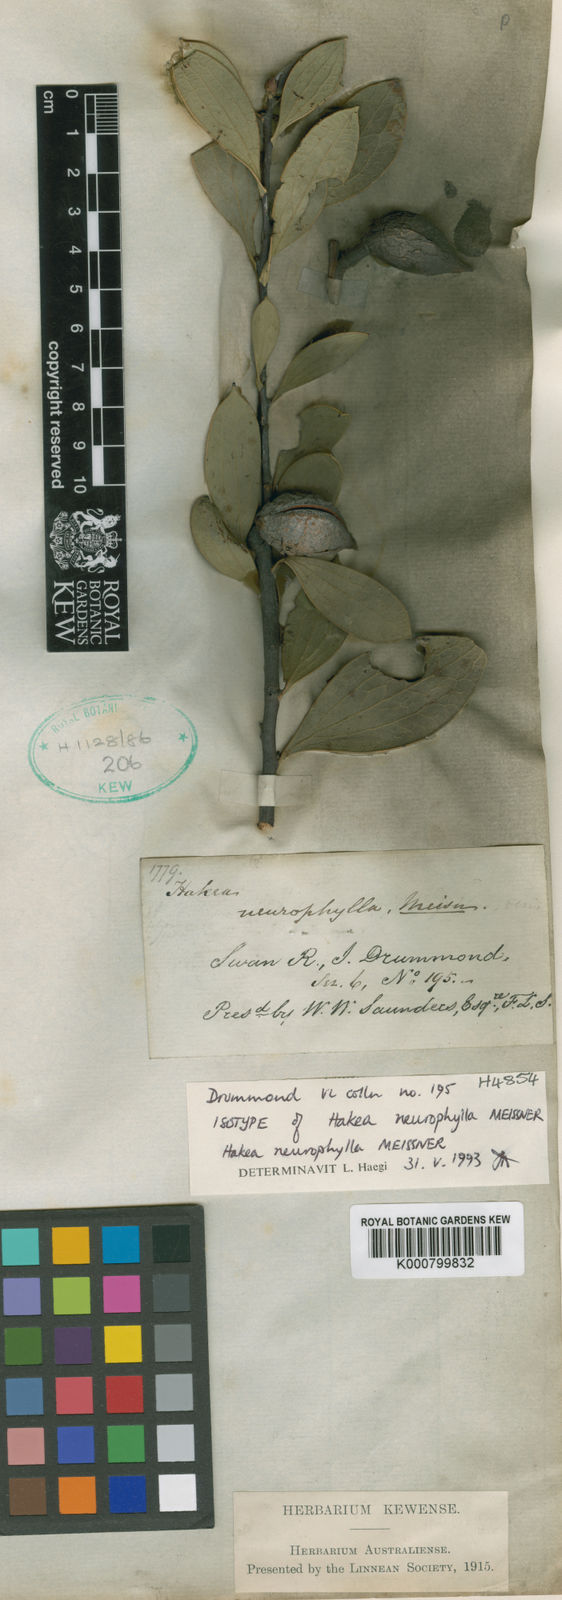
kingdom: Plantae
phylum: Tracheophyta
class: Magnoliopsida
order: Proteales
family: Proteaceae
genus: Hakea
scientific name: Hakea neurophylla
